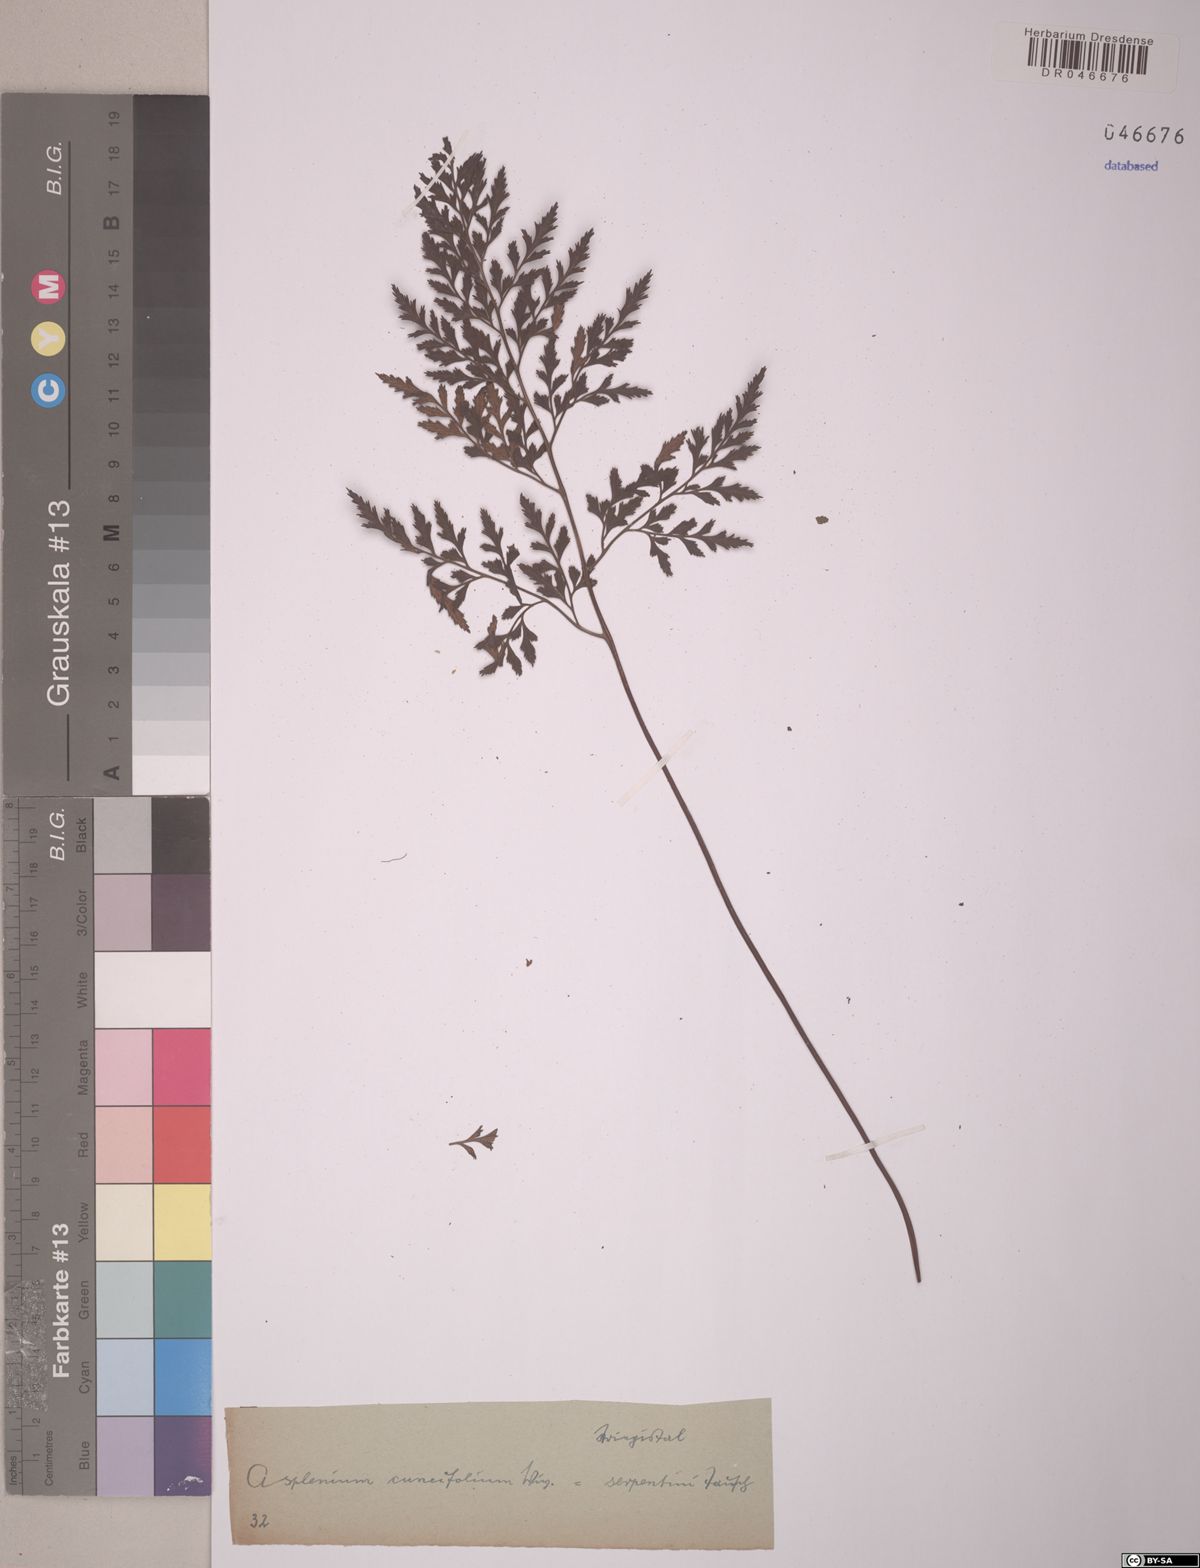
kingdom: Plantae
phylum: Tracheophyta
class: Polypodiopsida
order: Polypodiales
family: Aspleniaceae
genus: Asplenium
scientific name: Asplenium cuneifolium
